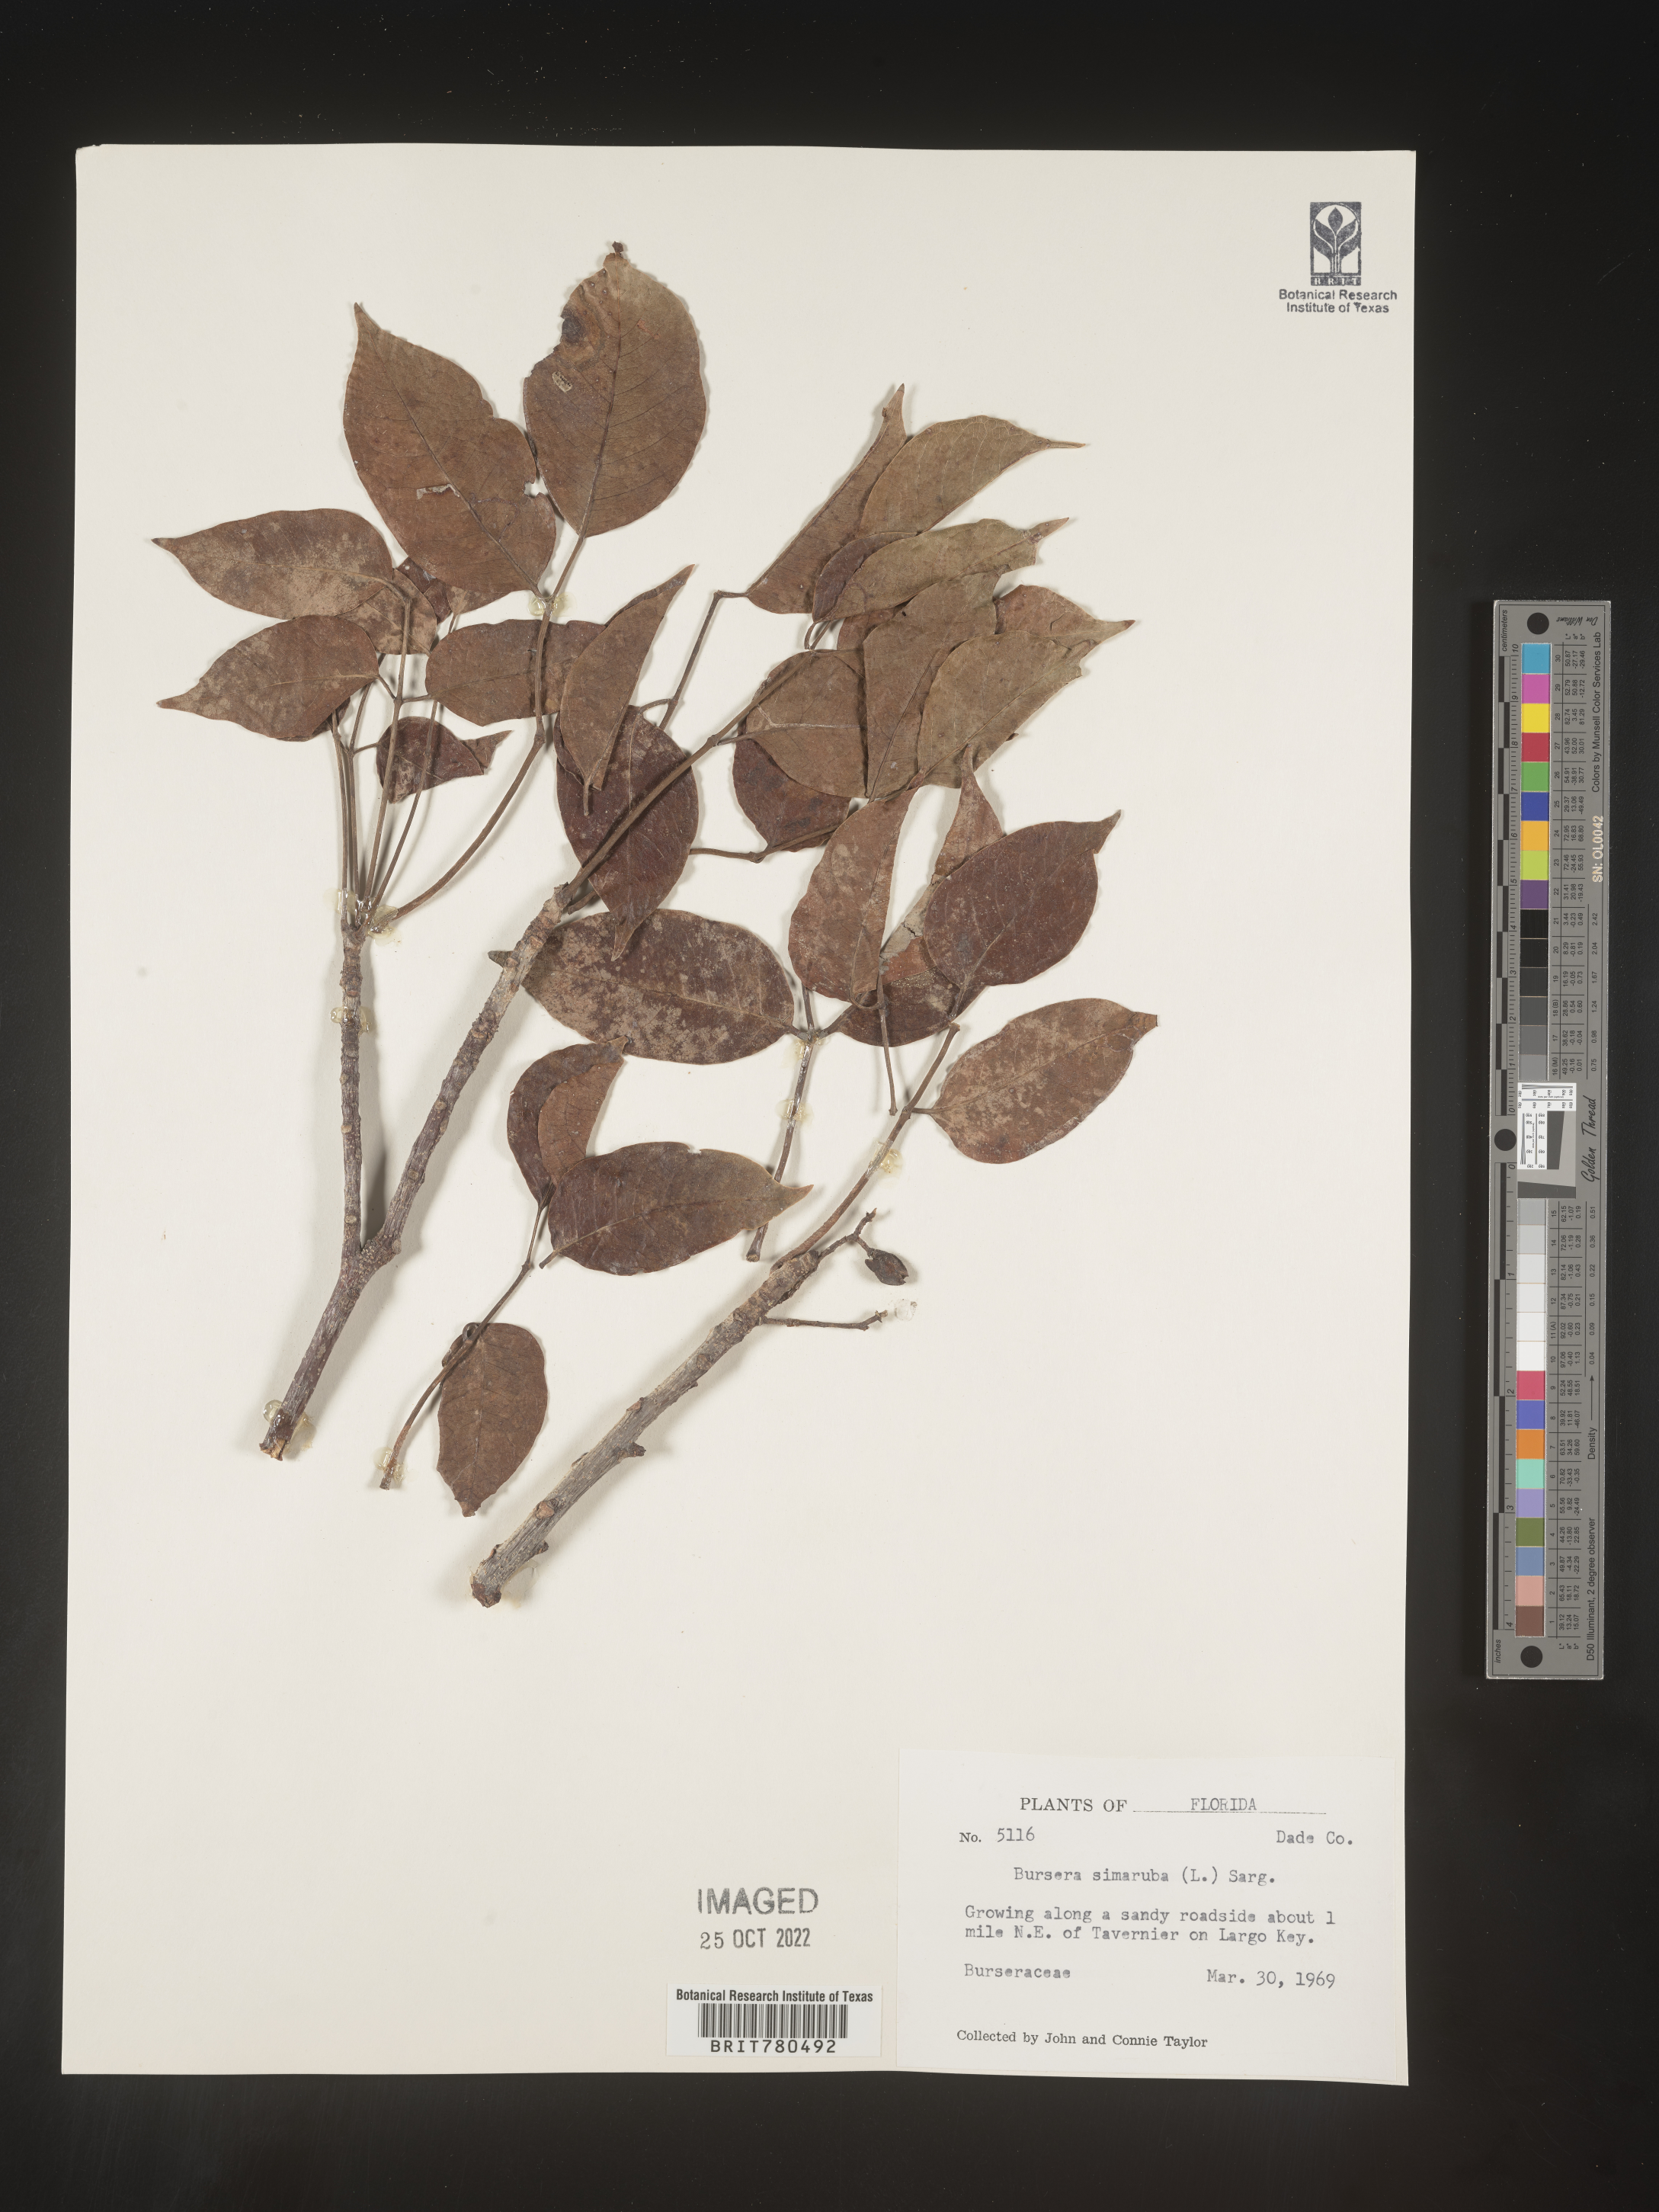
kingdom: Plantae
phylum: Tracheophyta
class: Magnoliopsida
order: Sapindales
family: Burseraceae
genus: Bursera
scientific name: Bursera
